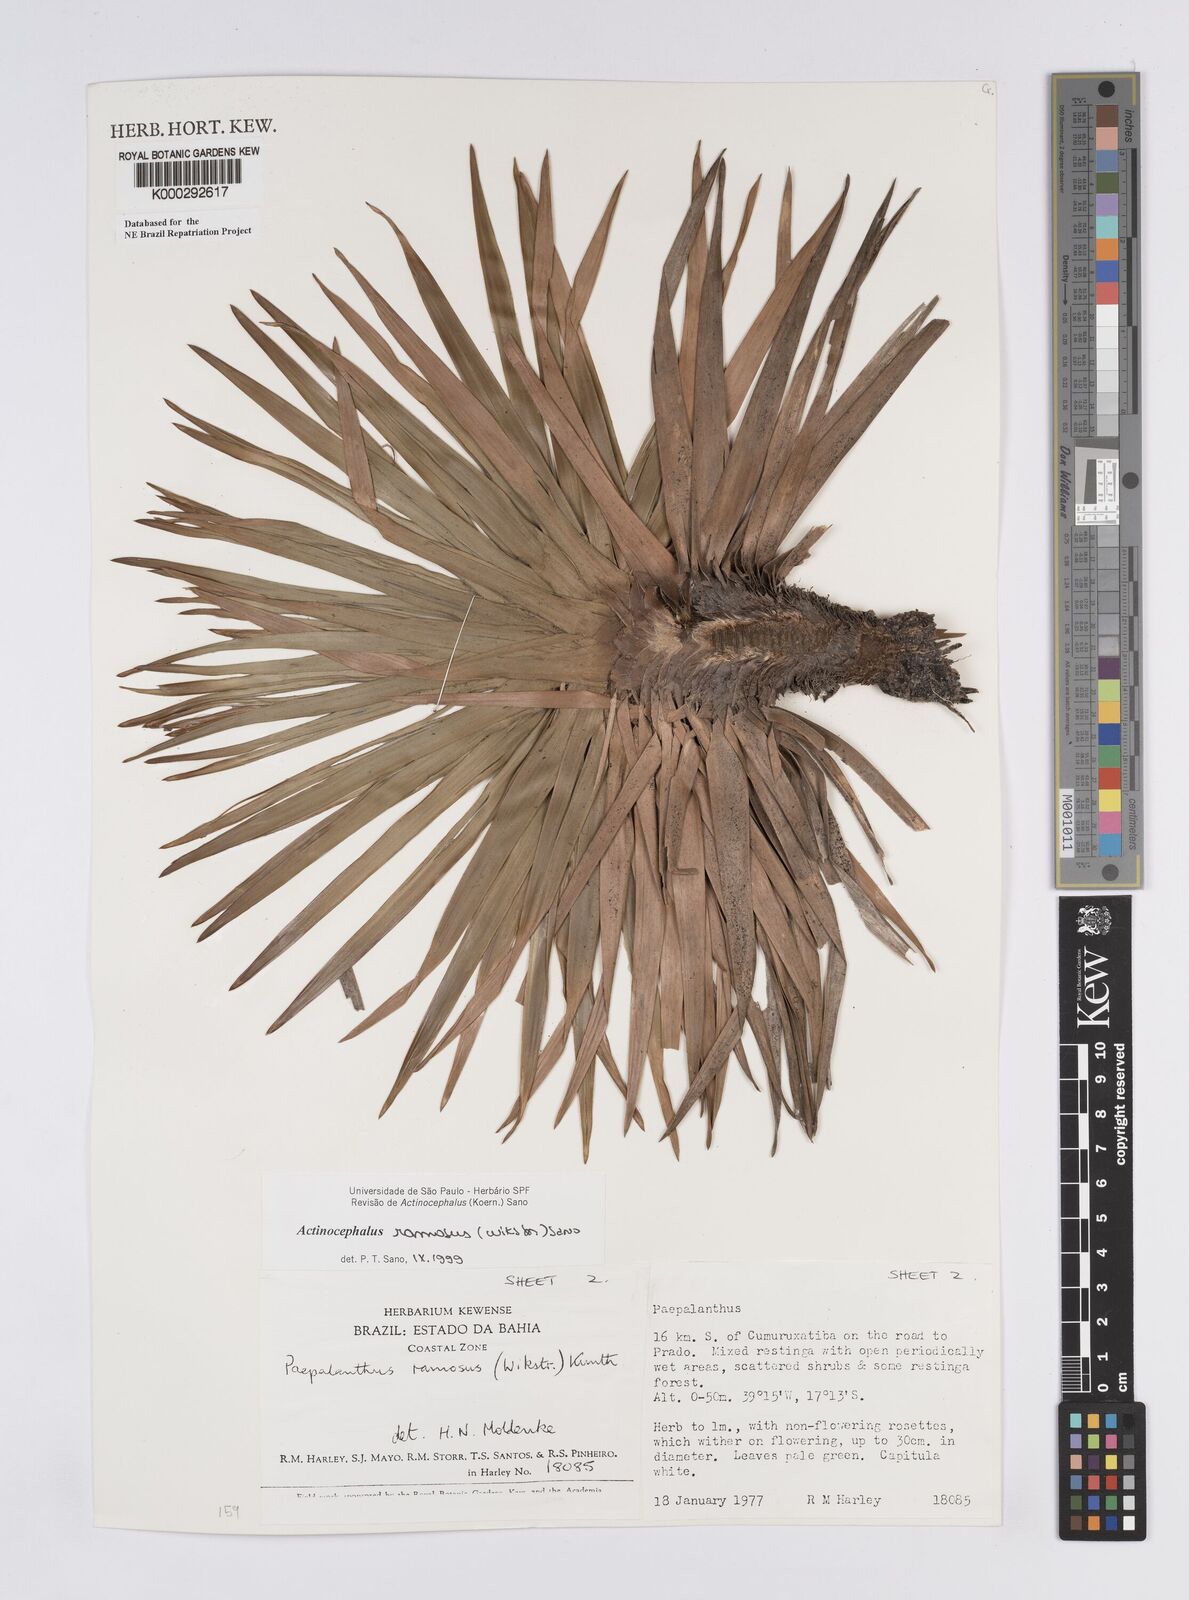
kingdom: Plantae
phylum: Tracheophyta
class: Liliopsida
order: Poales
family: Eriocaulaceae
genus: Paepalanthus
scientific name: Paepalanthus ramosus
